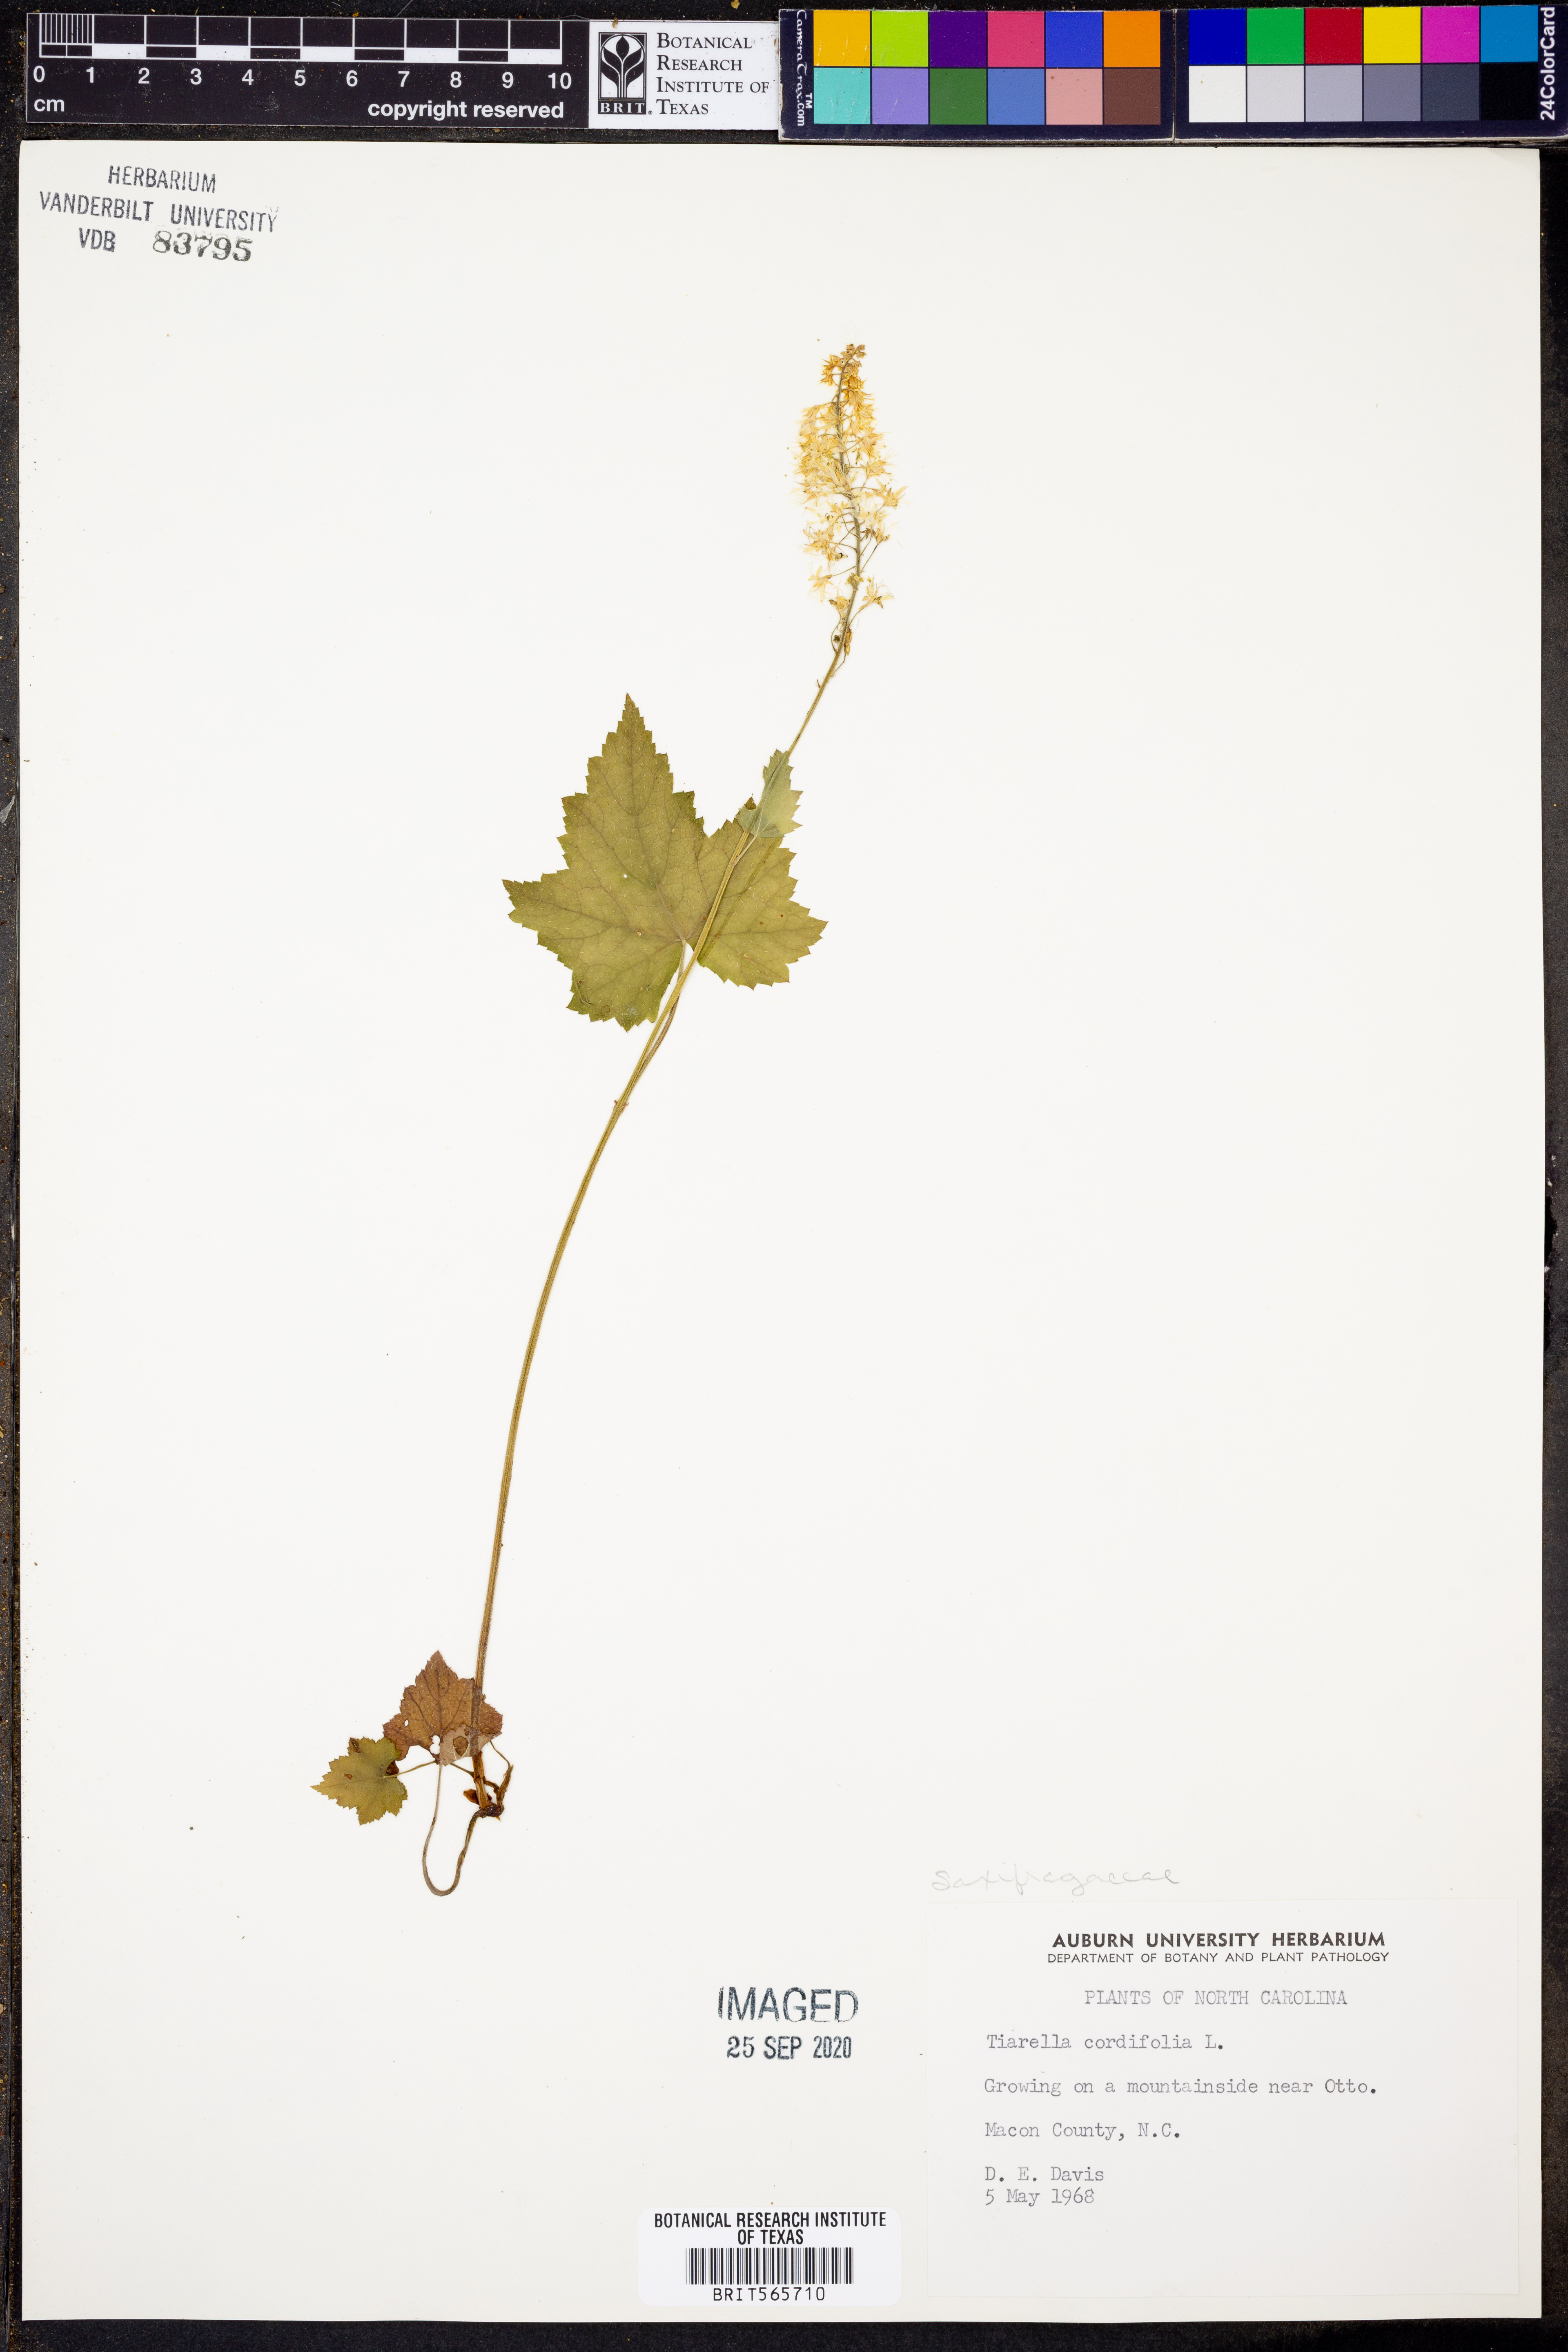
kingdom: Plantae
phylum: Tracheophyta
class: Magnoliopsida
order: Saxifragales
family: Saxifragaceae
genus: Tiarella
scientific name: Tiarella cordifolia
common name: Foamflower
